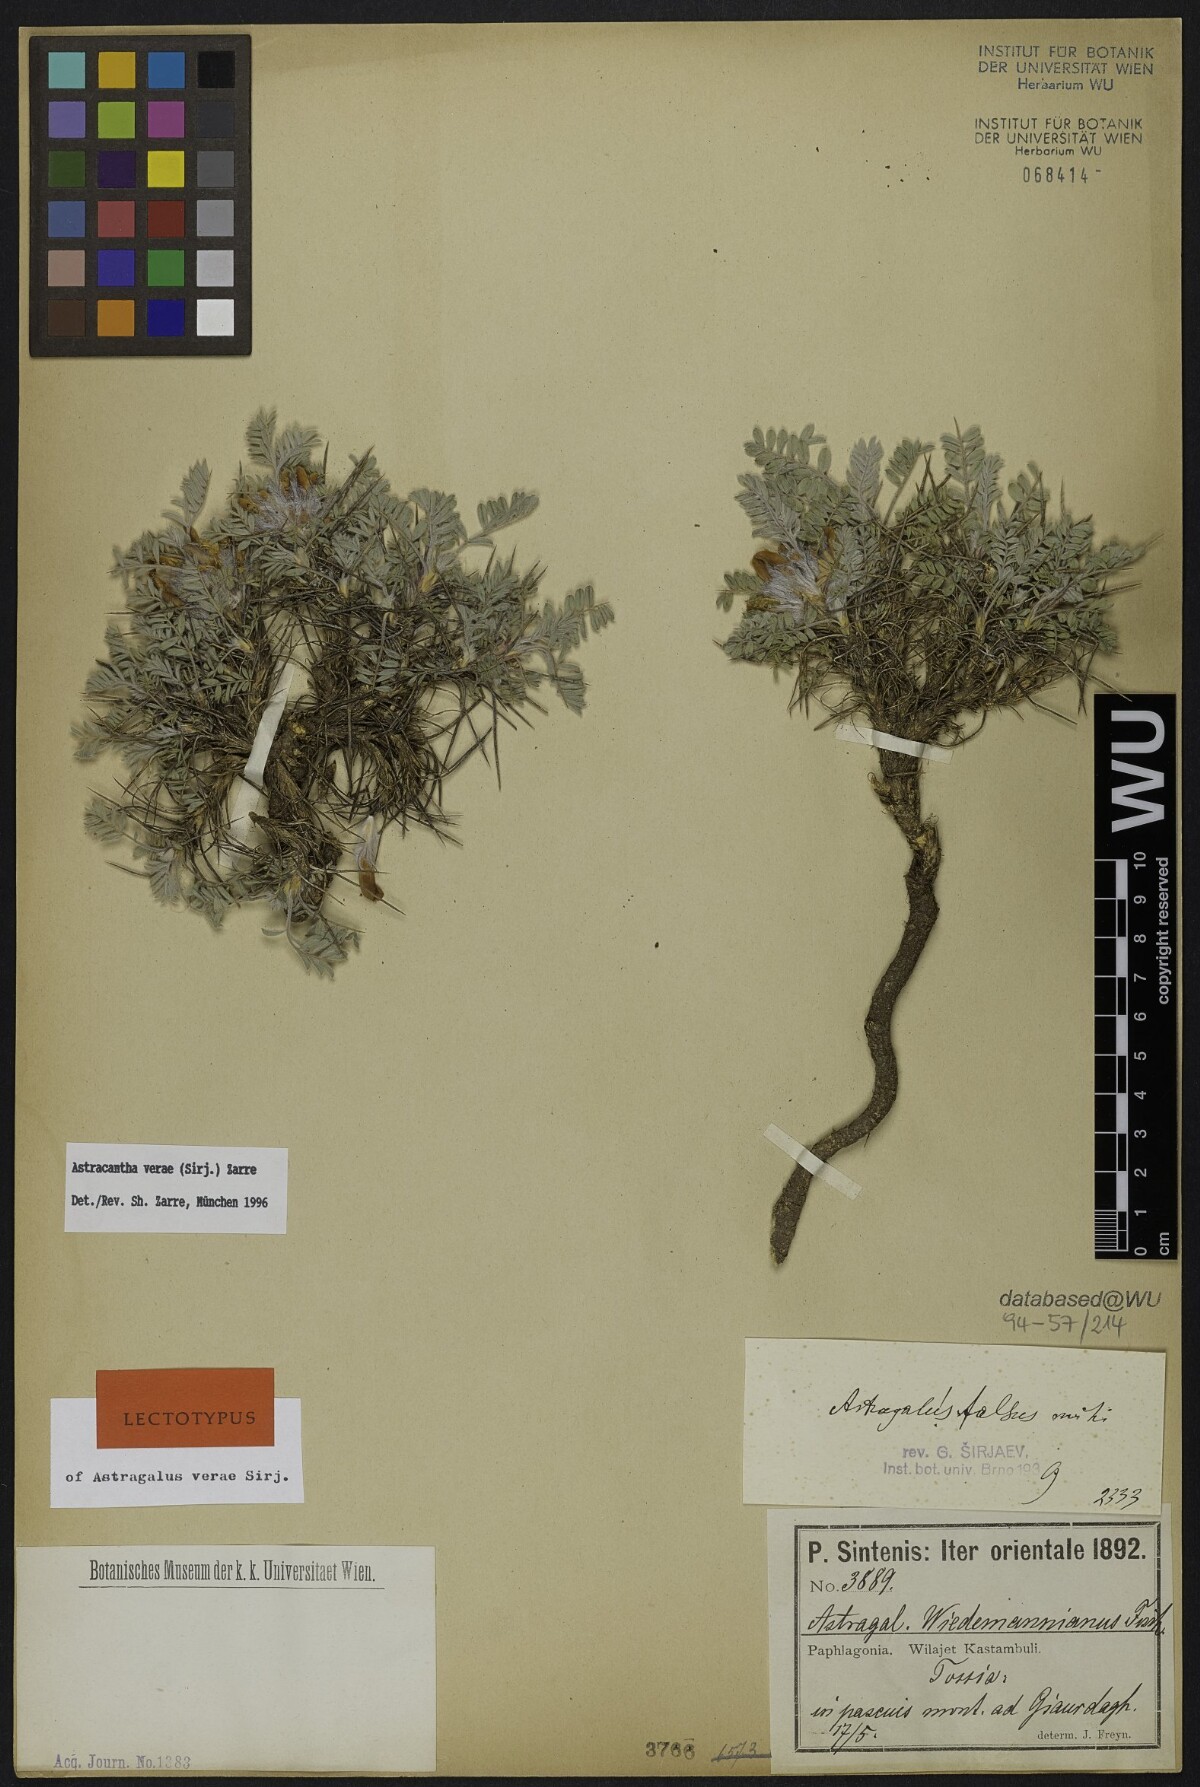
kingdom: Plantae
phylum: Tracheophyta
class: Magnoliopsida
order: Fabales
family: Fabaceae
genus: Astragalus
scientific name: Astragalus verae
